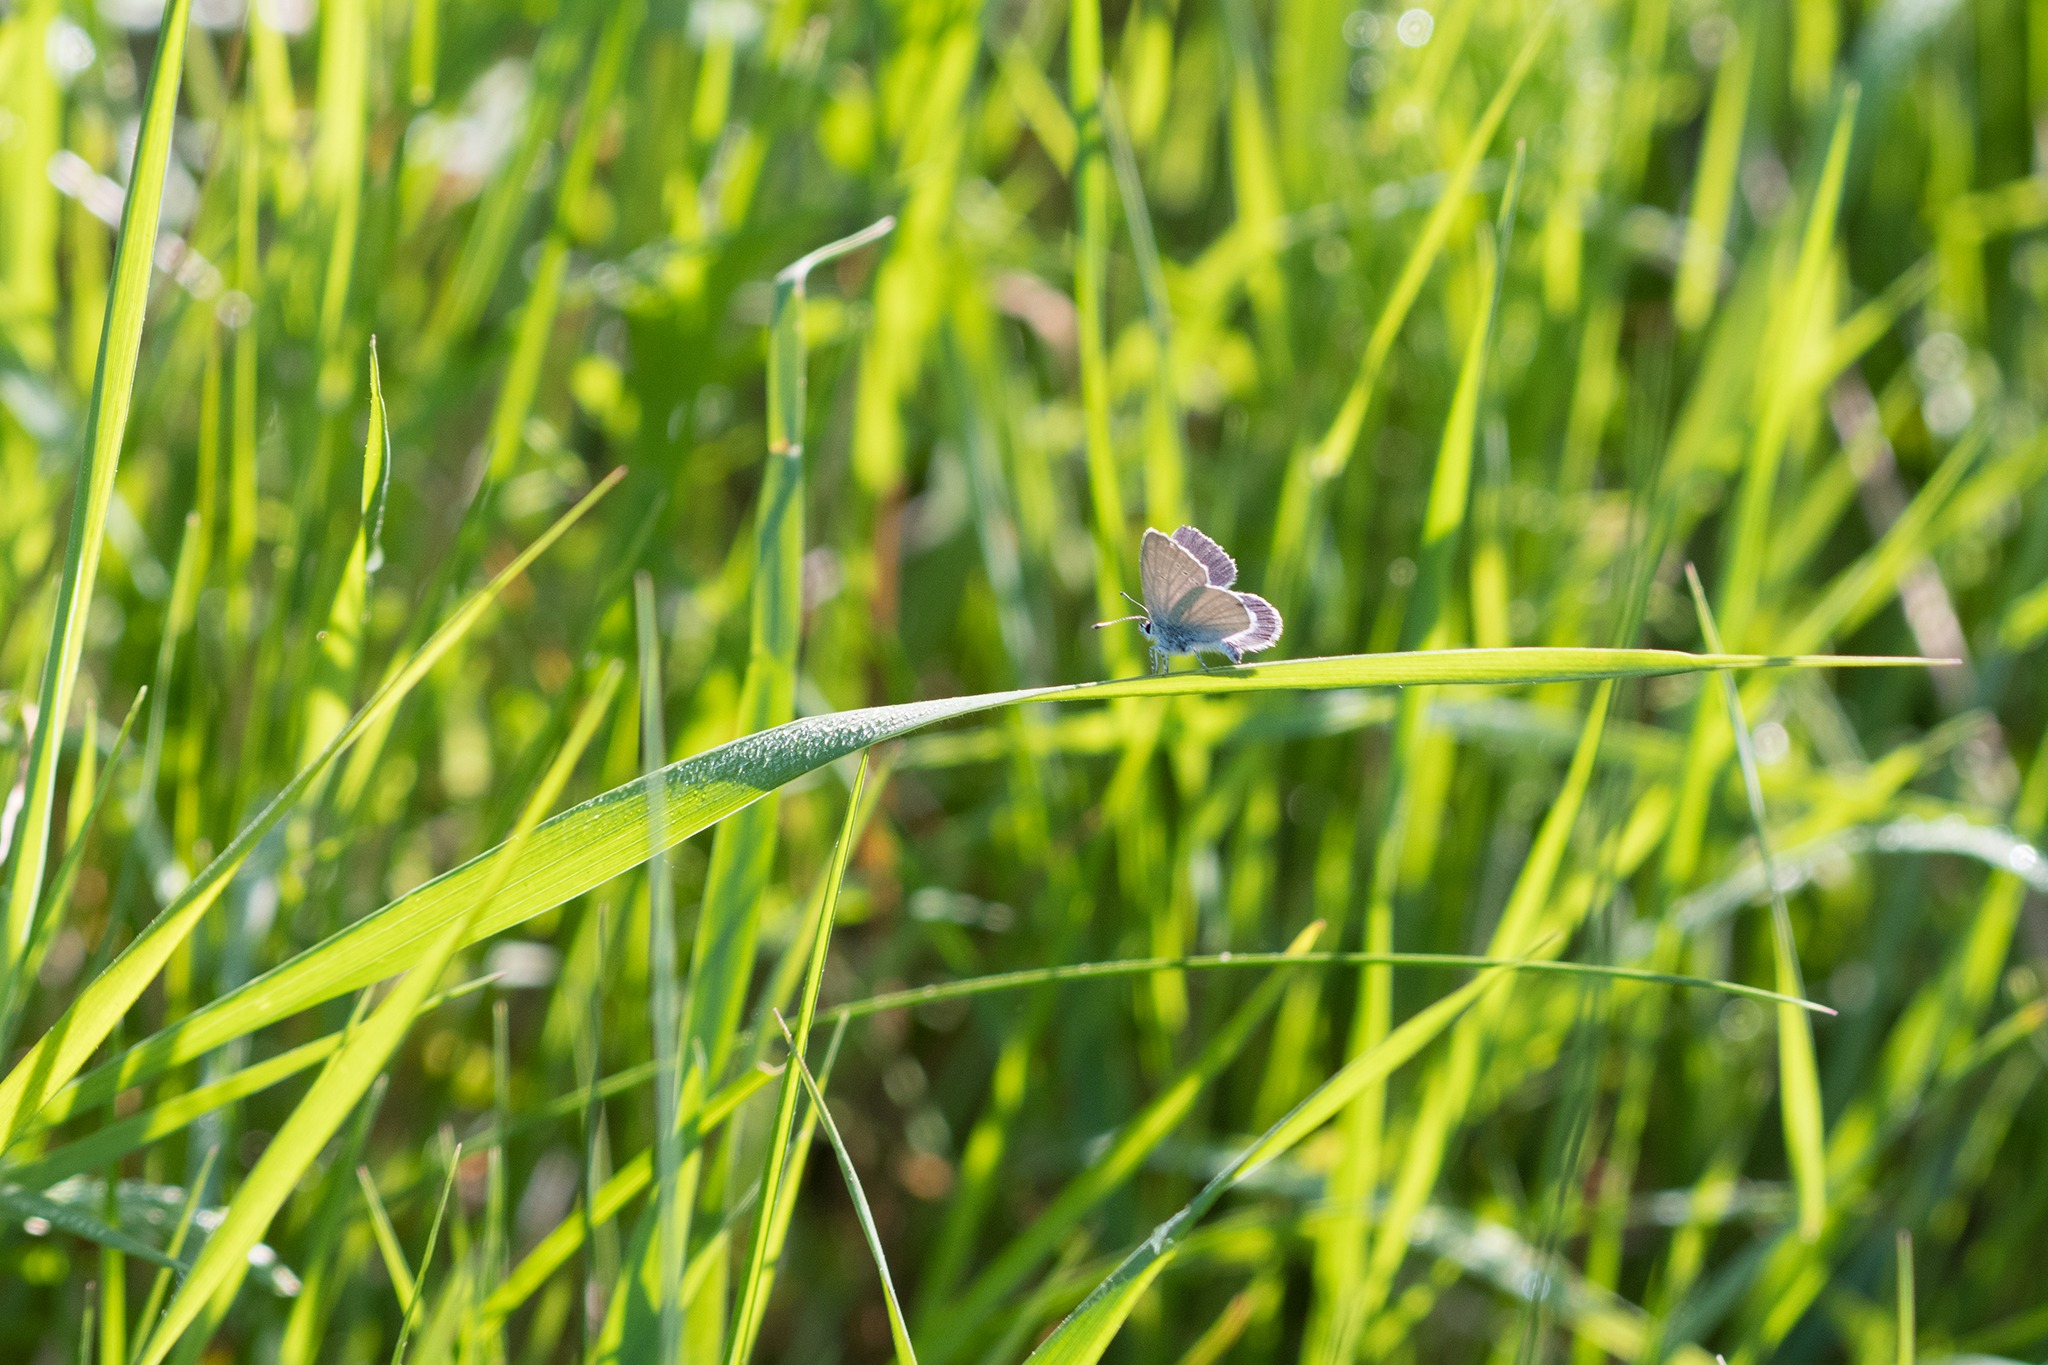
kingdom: Animalia
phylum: Arthropoda
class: Insecta
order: Lepidoptera
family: Lycaenidae
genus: Cupido
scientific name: Cupido minimus
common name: Dværgblåfugl
